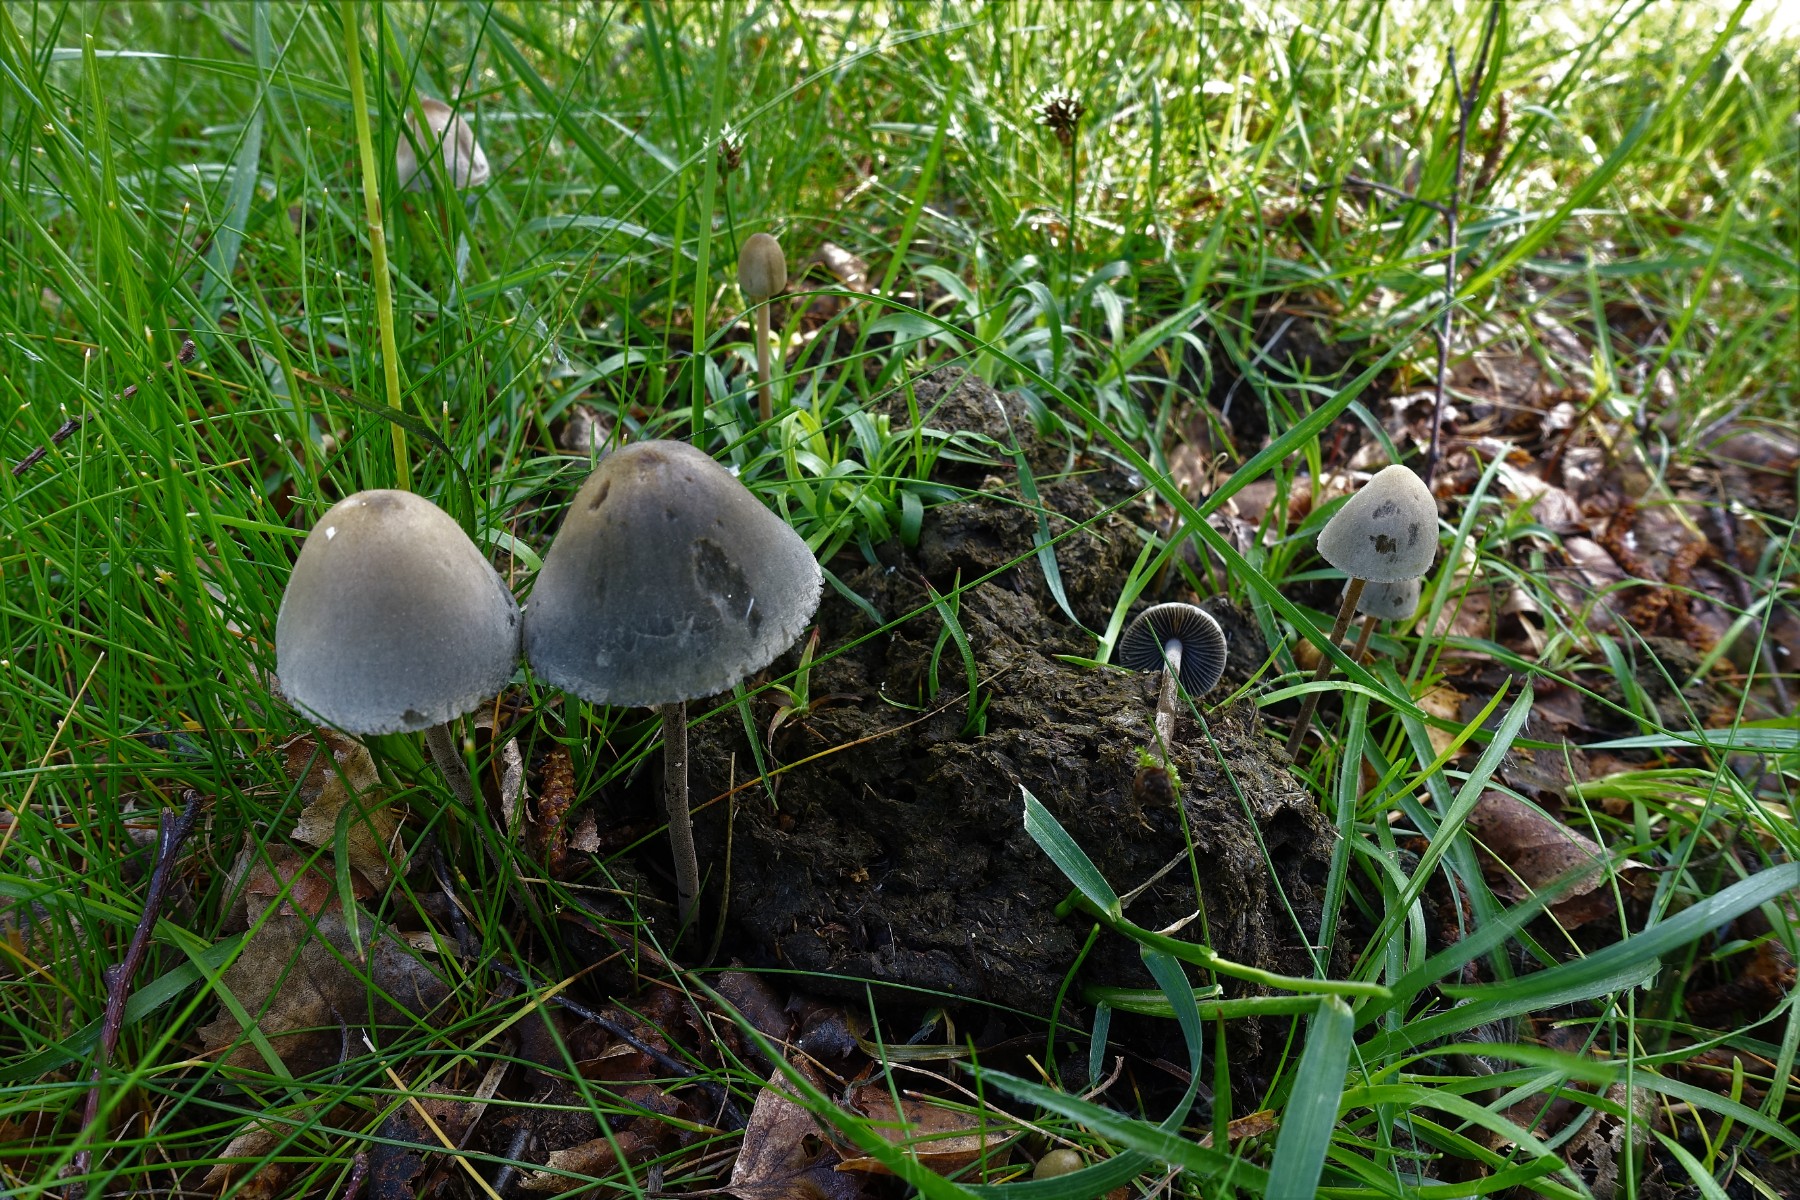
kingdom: Fungi
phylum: Basidiomycota
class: Agaricomycetes
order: Agaricales
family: Bolbitiaceae
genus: Panaeolus
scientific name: Panaeolus papilionaceus
